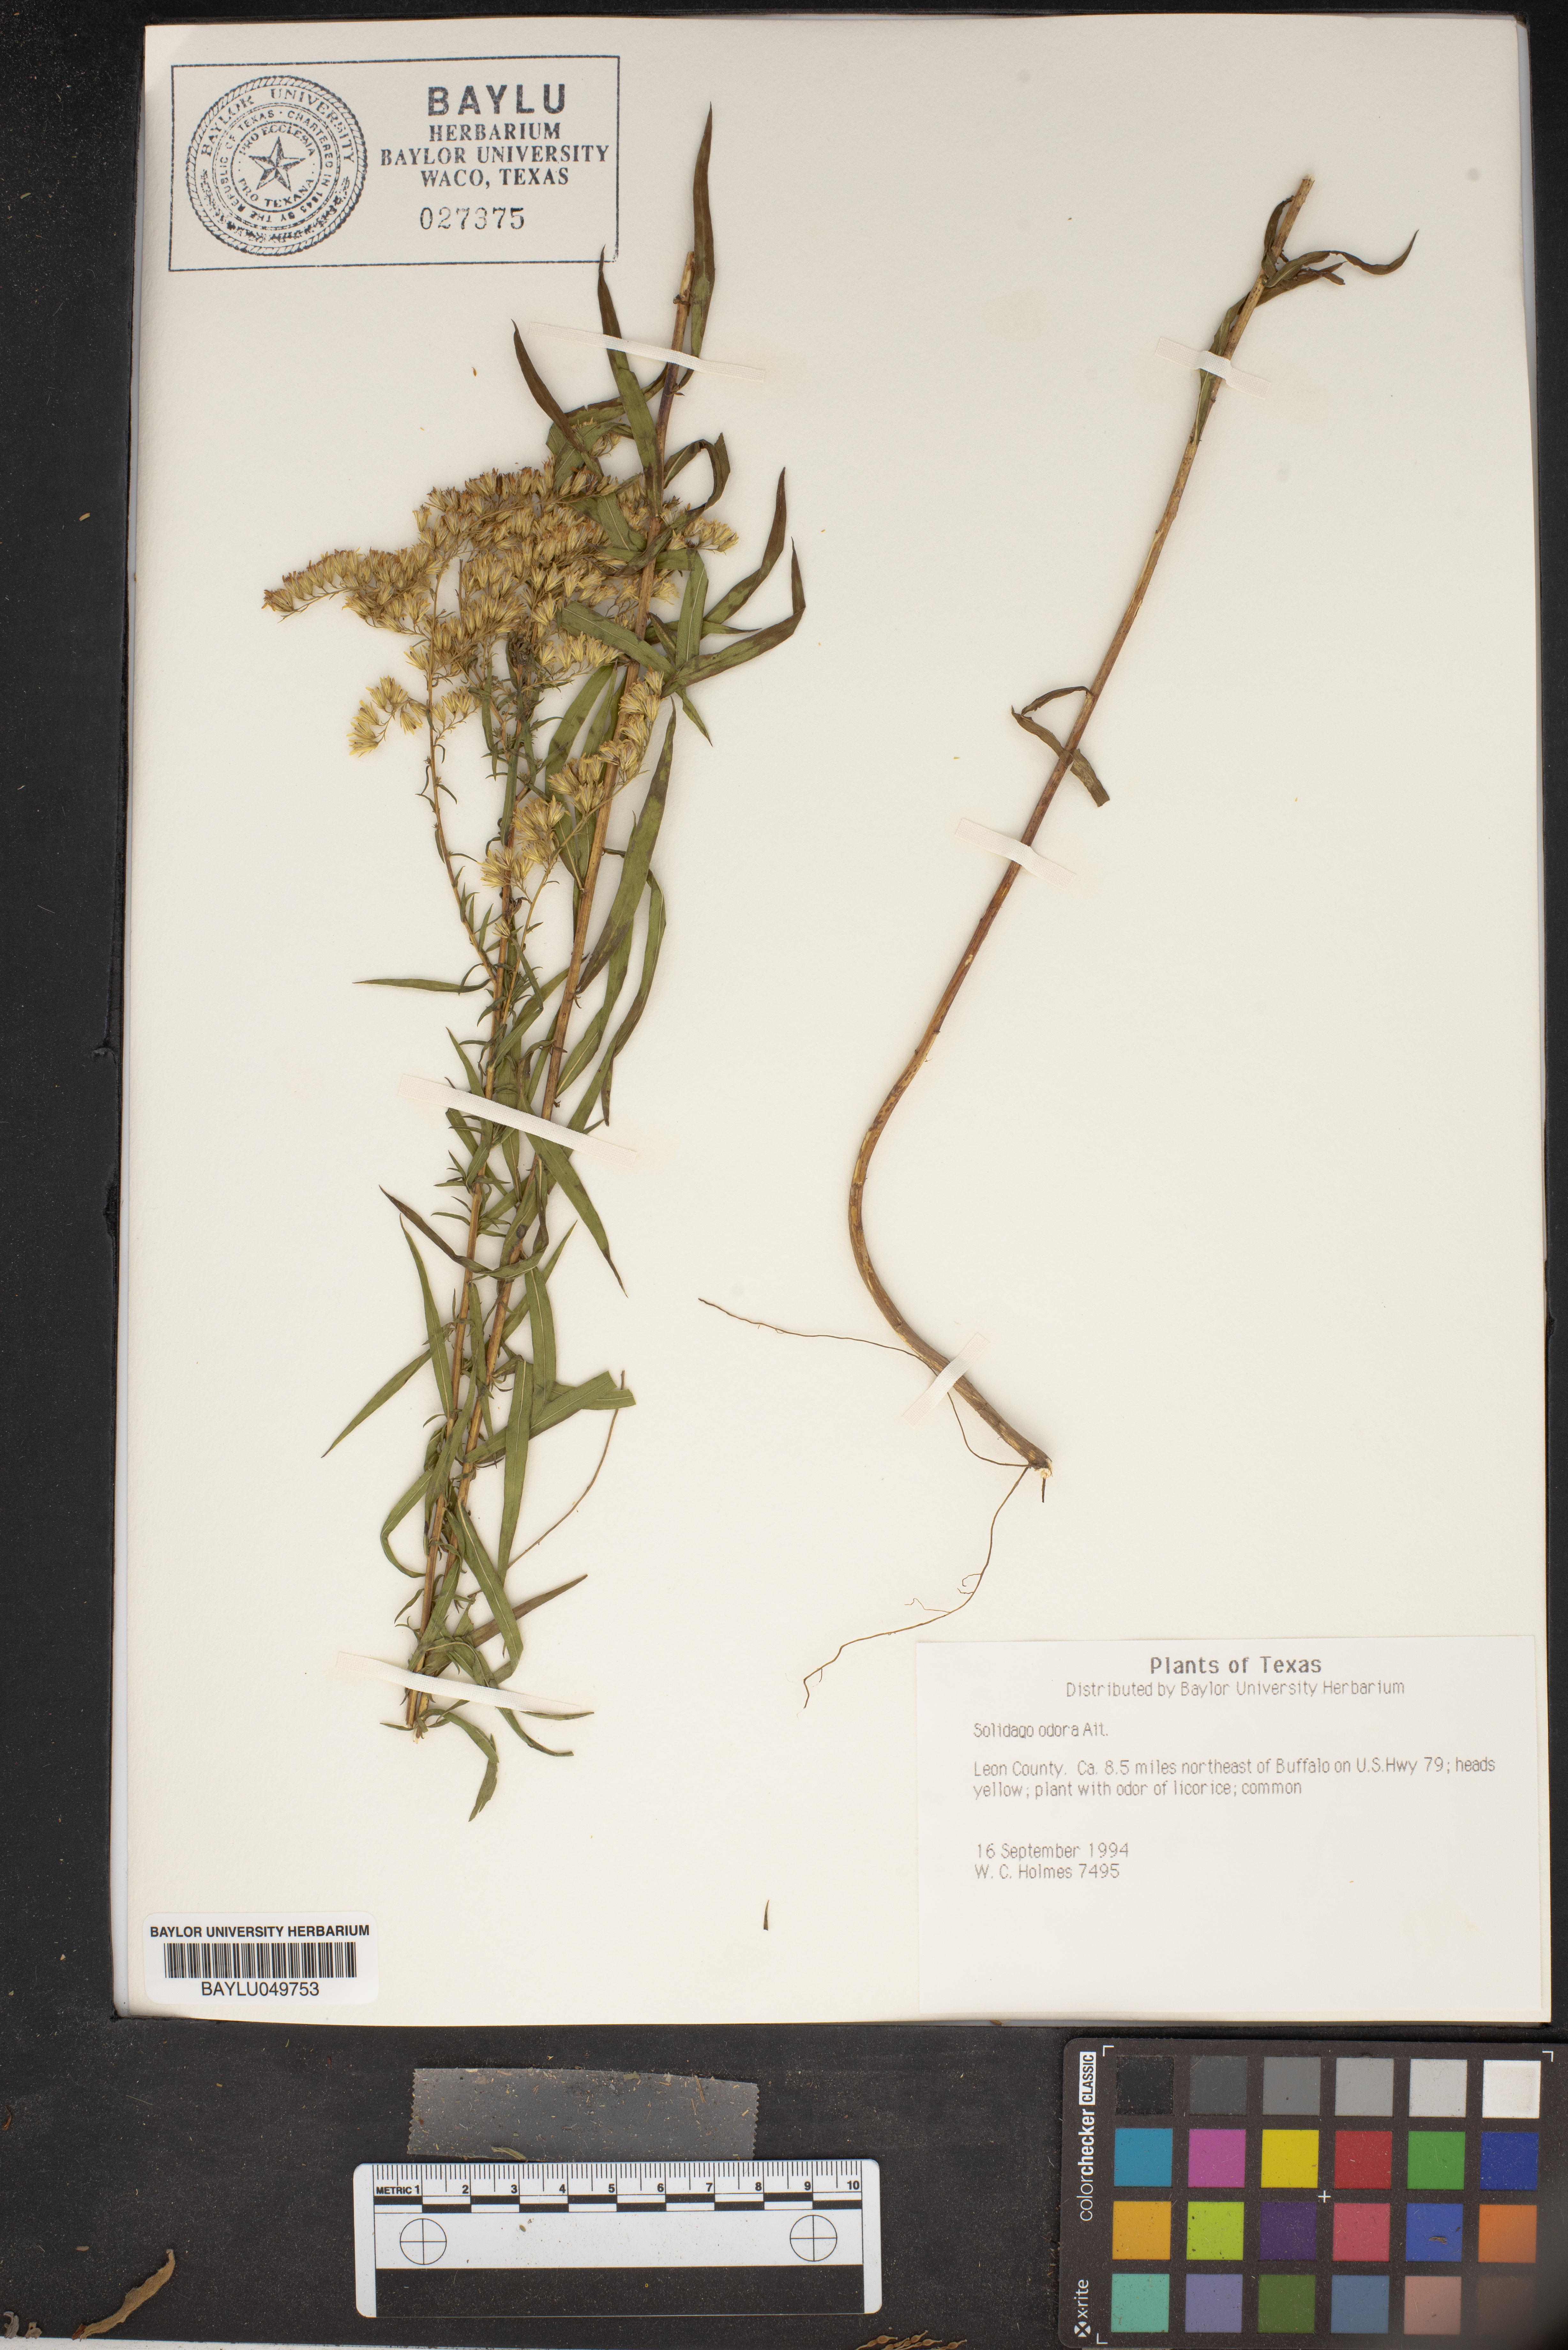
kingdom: Plantae
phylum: Tracheophyta
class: Magnoliopsida
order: Asterales
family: Asteraceae
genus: Solidago
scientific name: Solidago odora
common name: Anise-scented goldenrod
